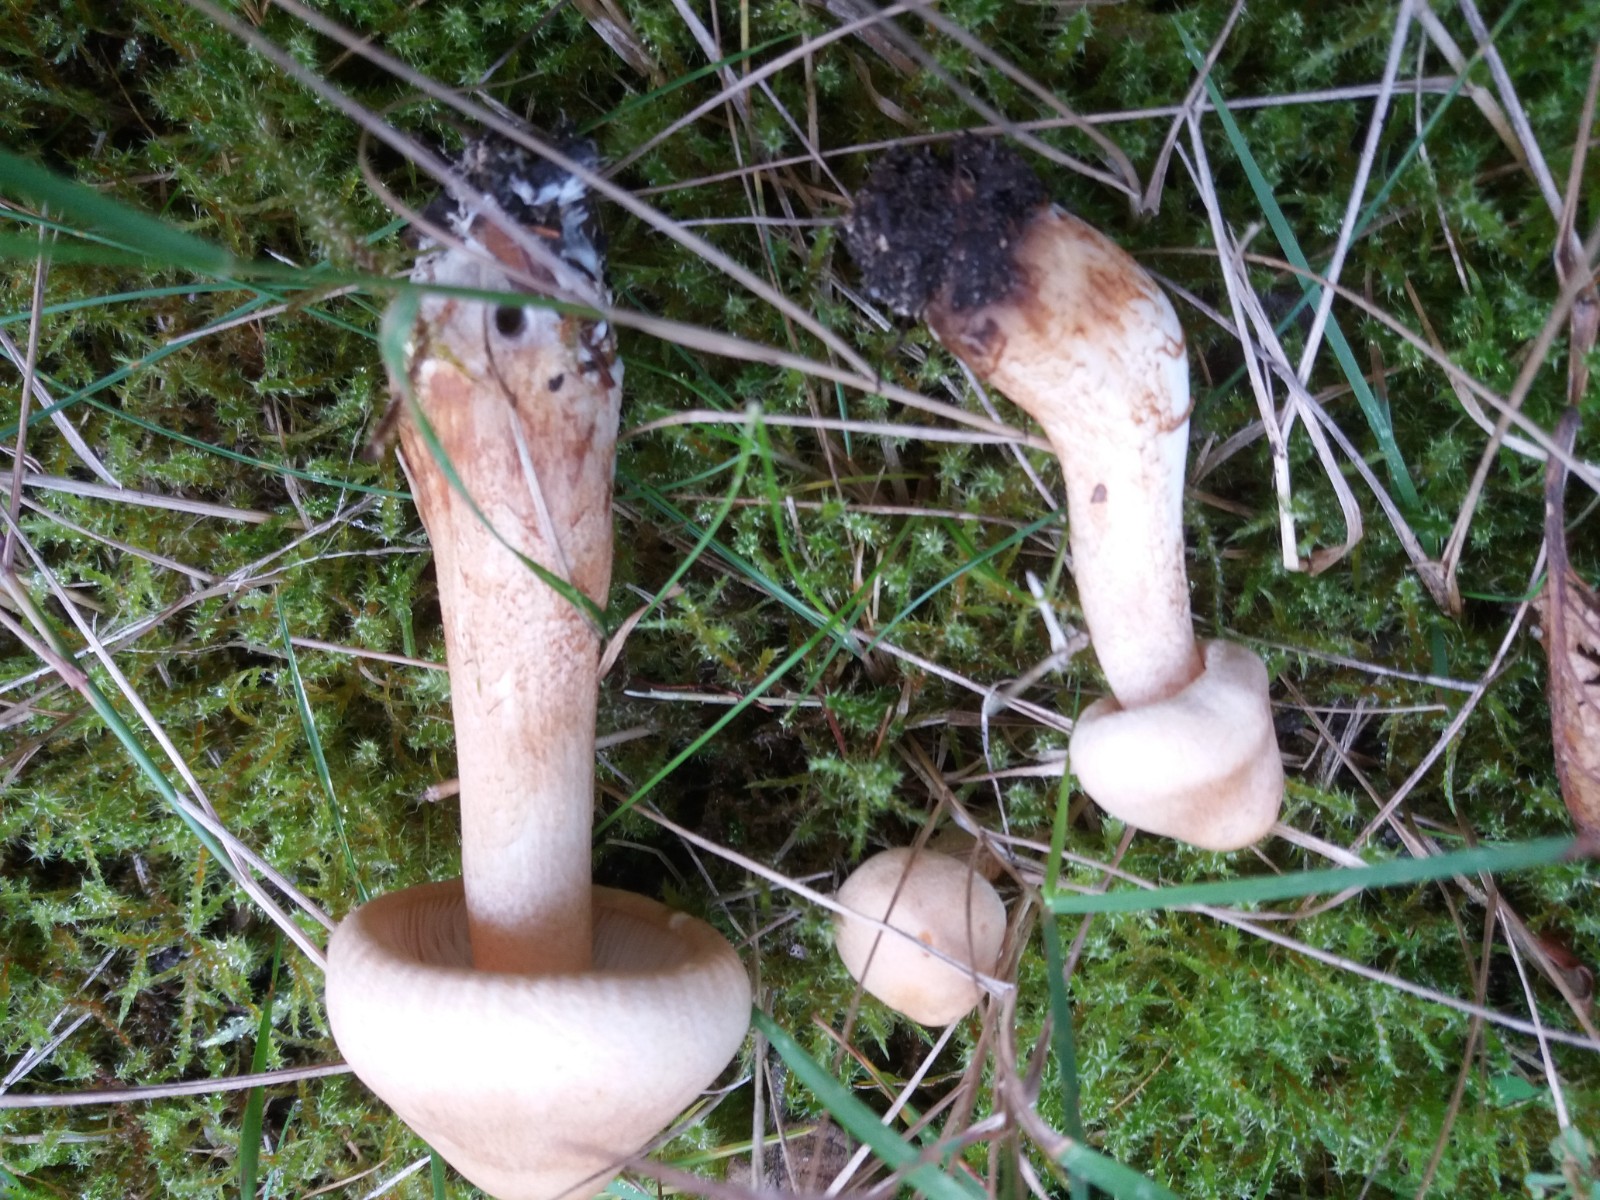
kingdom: Fungi
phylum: Basidiomycota
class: Agaricomycetes
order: Agaricales
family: Tricholomataceae
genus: Tricholoma
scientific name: Tricholoma psammopus
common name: grynstokket ridderhat
